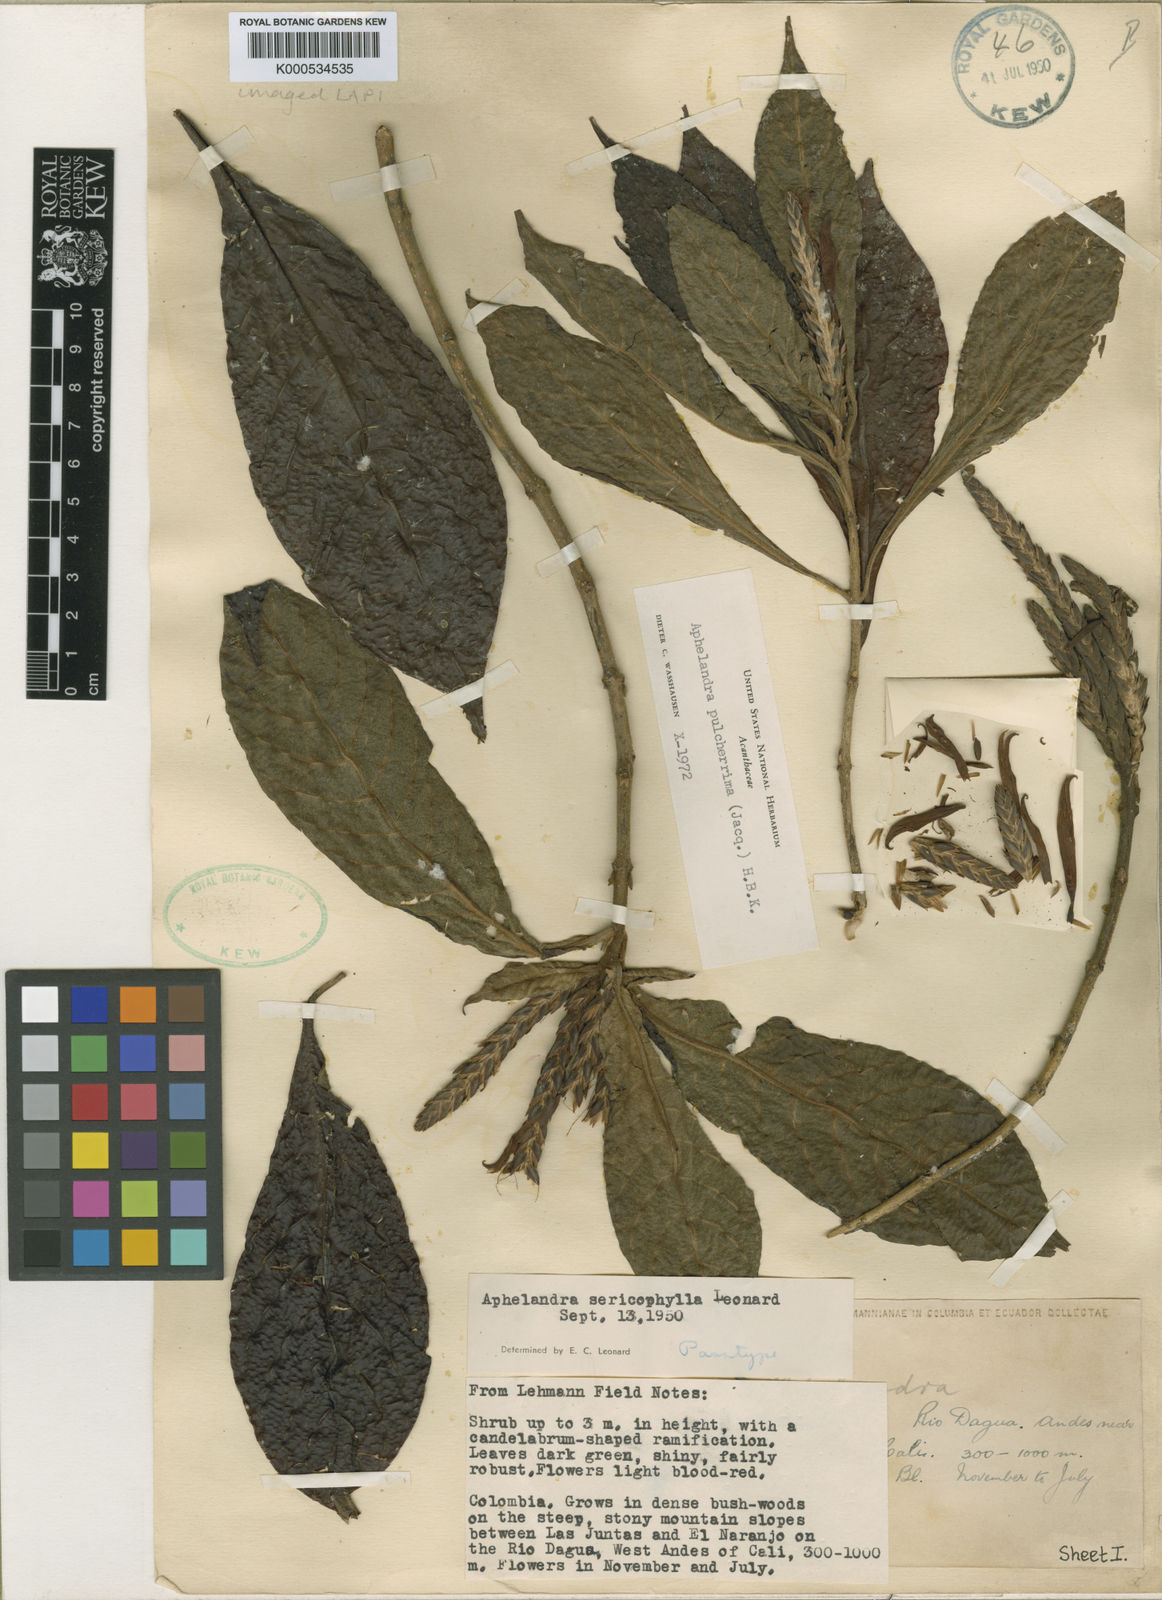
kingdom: Plantae
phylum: Tracheophyta
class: Magnoliopsida
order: Lamiales
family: Acanthaceae
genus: Aphelandra
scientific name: Aphelandra pulcherrima
